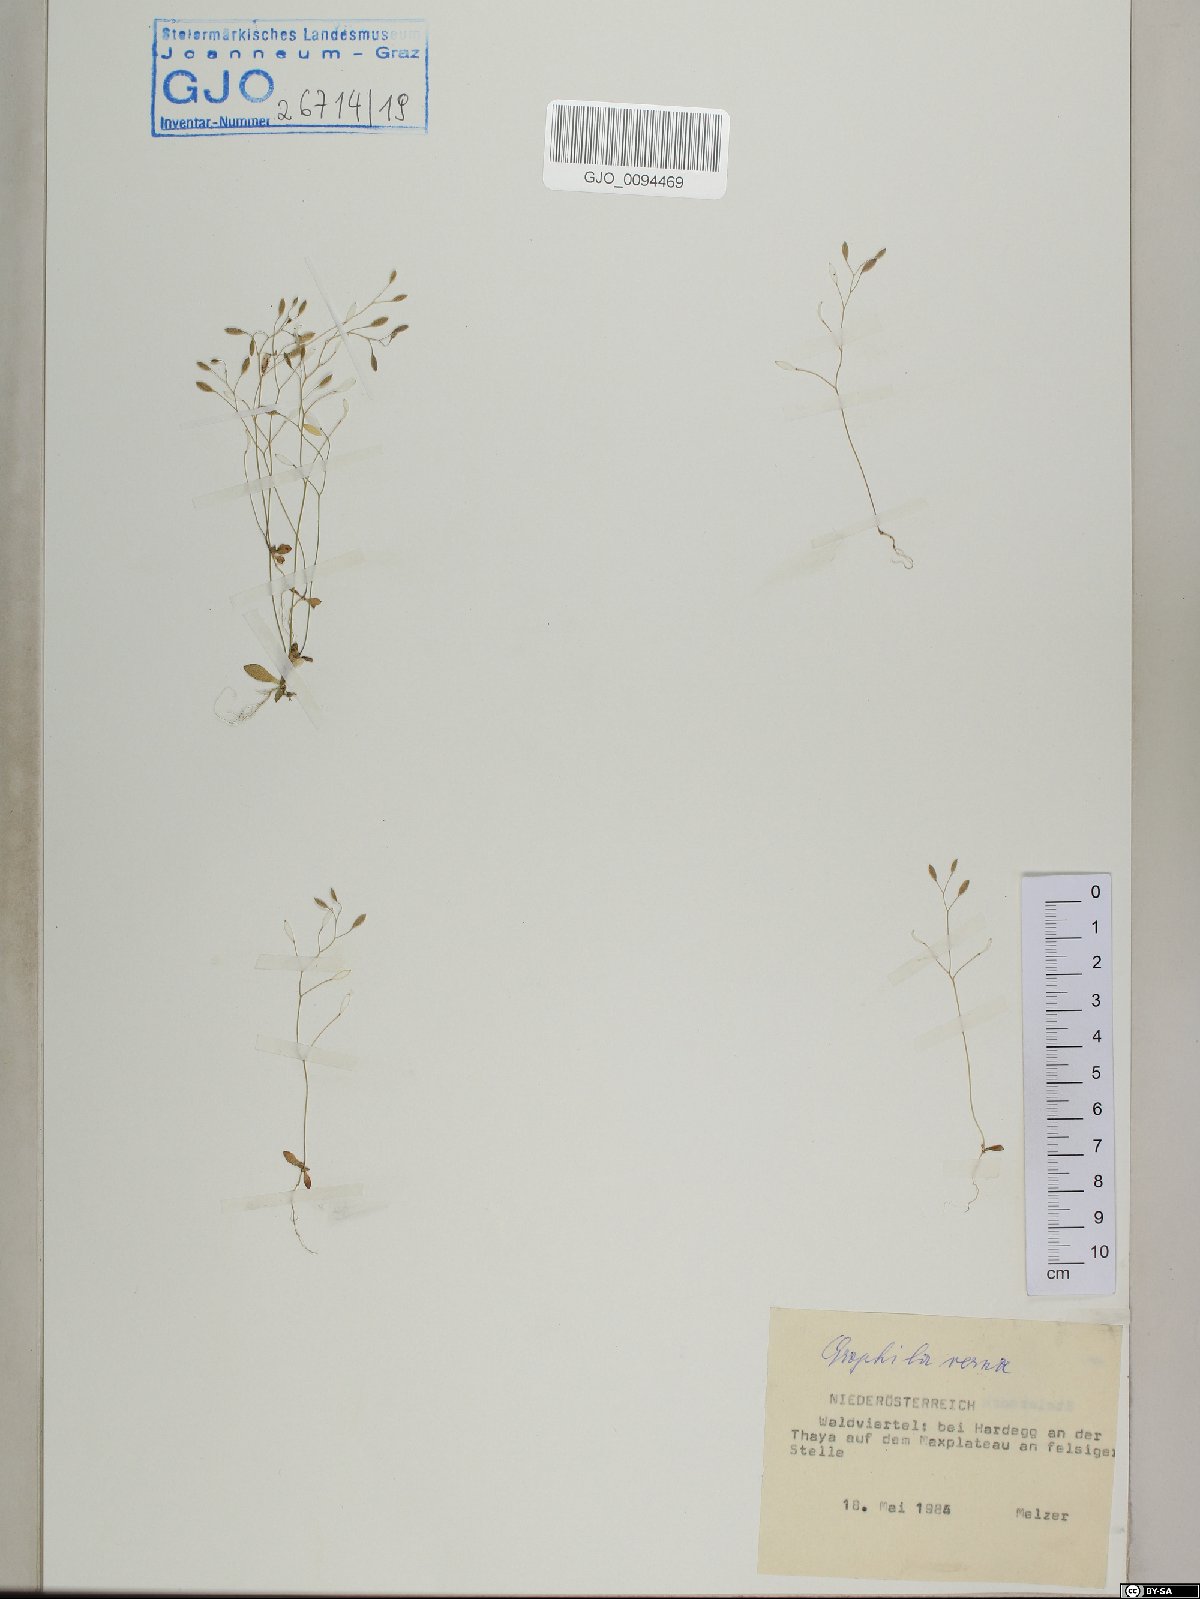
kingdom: Plantae
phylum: Tracheophyta
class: Magnoliopsida
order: Brassicales
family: Brassicaceae
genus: Draba
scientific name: Draba verna
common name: Spring draba
